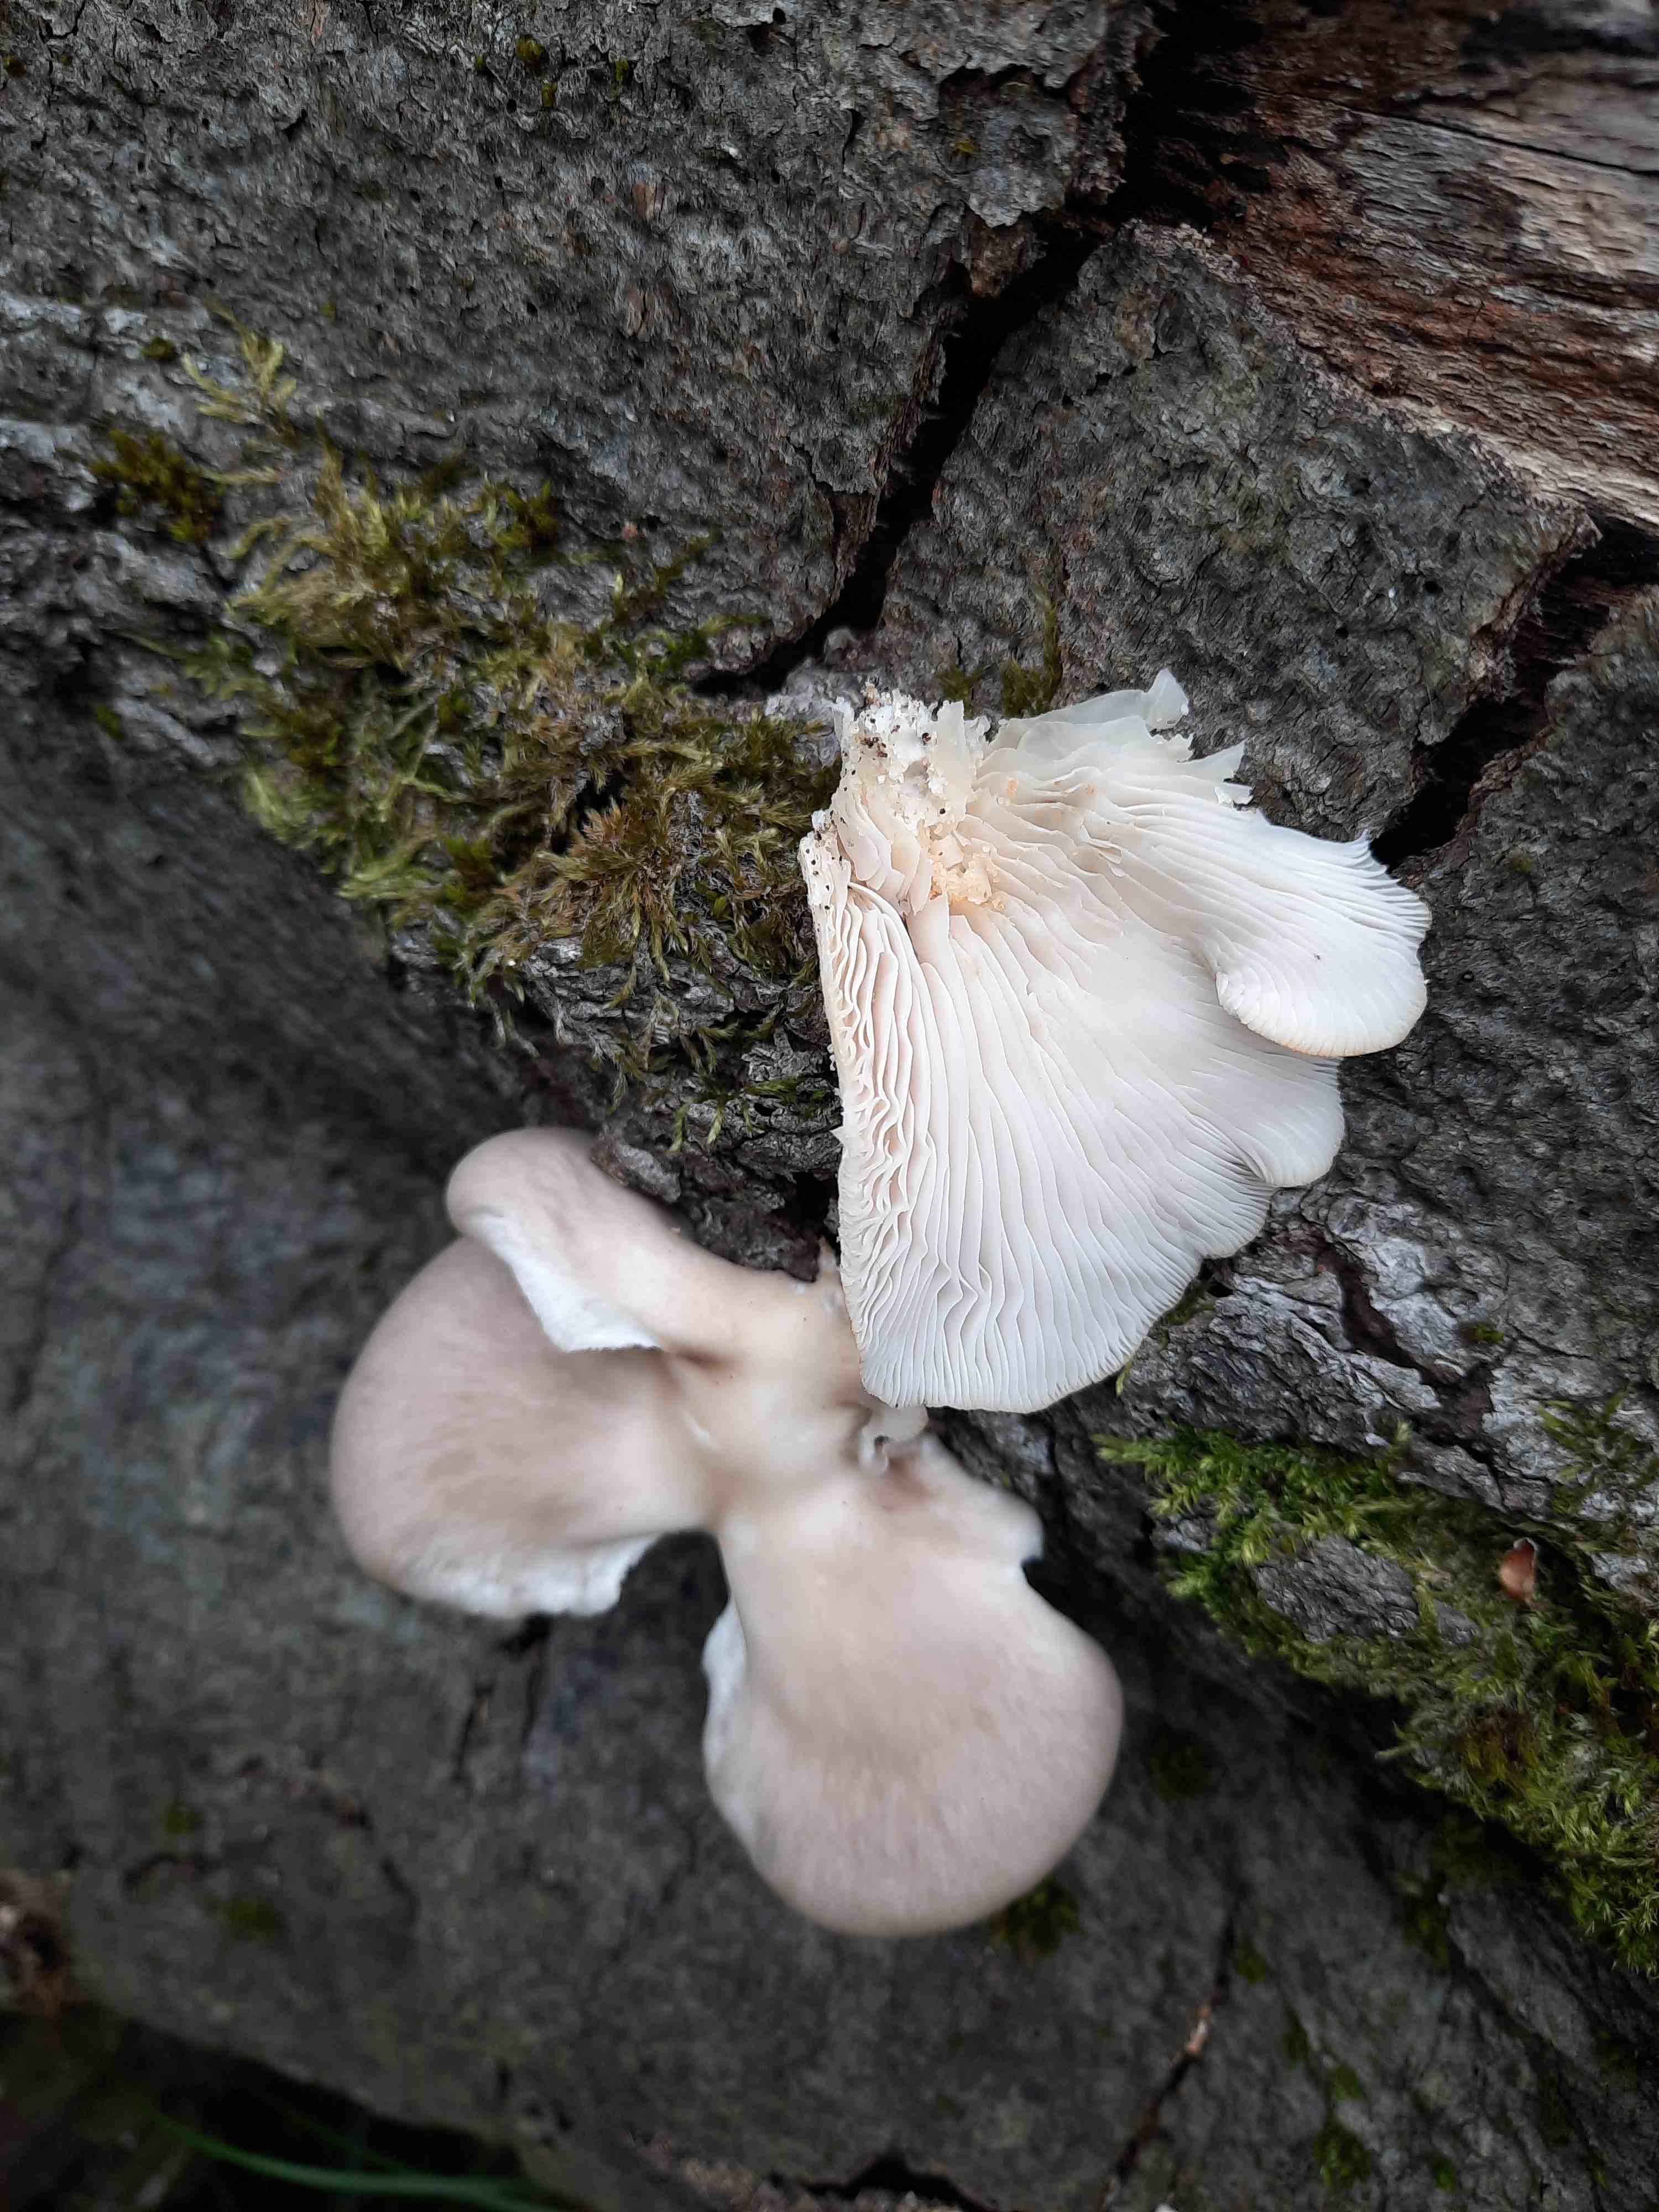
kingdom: Fungi
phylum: Basidiomycota
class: Agaricomycetes
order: Agaricales
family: Pleurotaceae
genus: Pleurotus
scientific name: Pleurotus pulmonarius
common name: sommer-østershat
